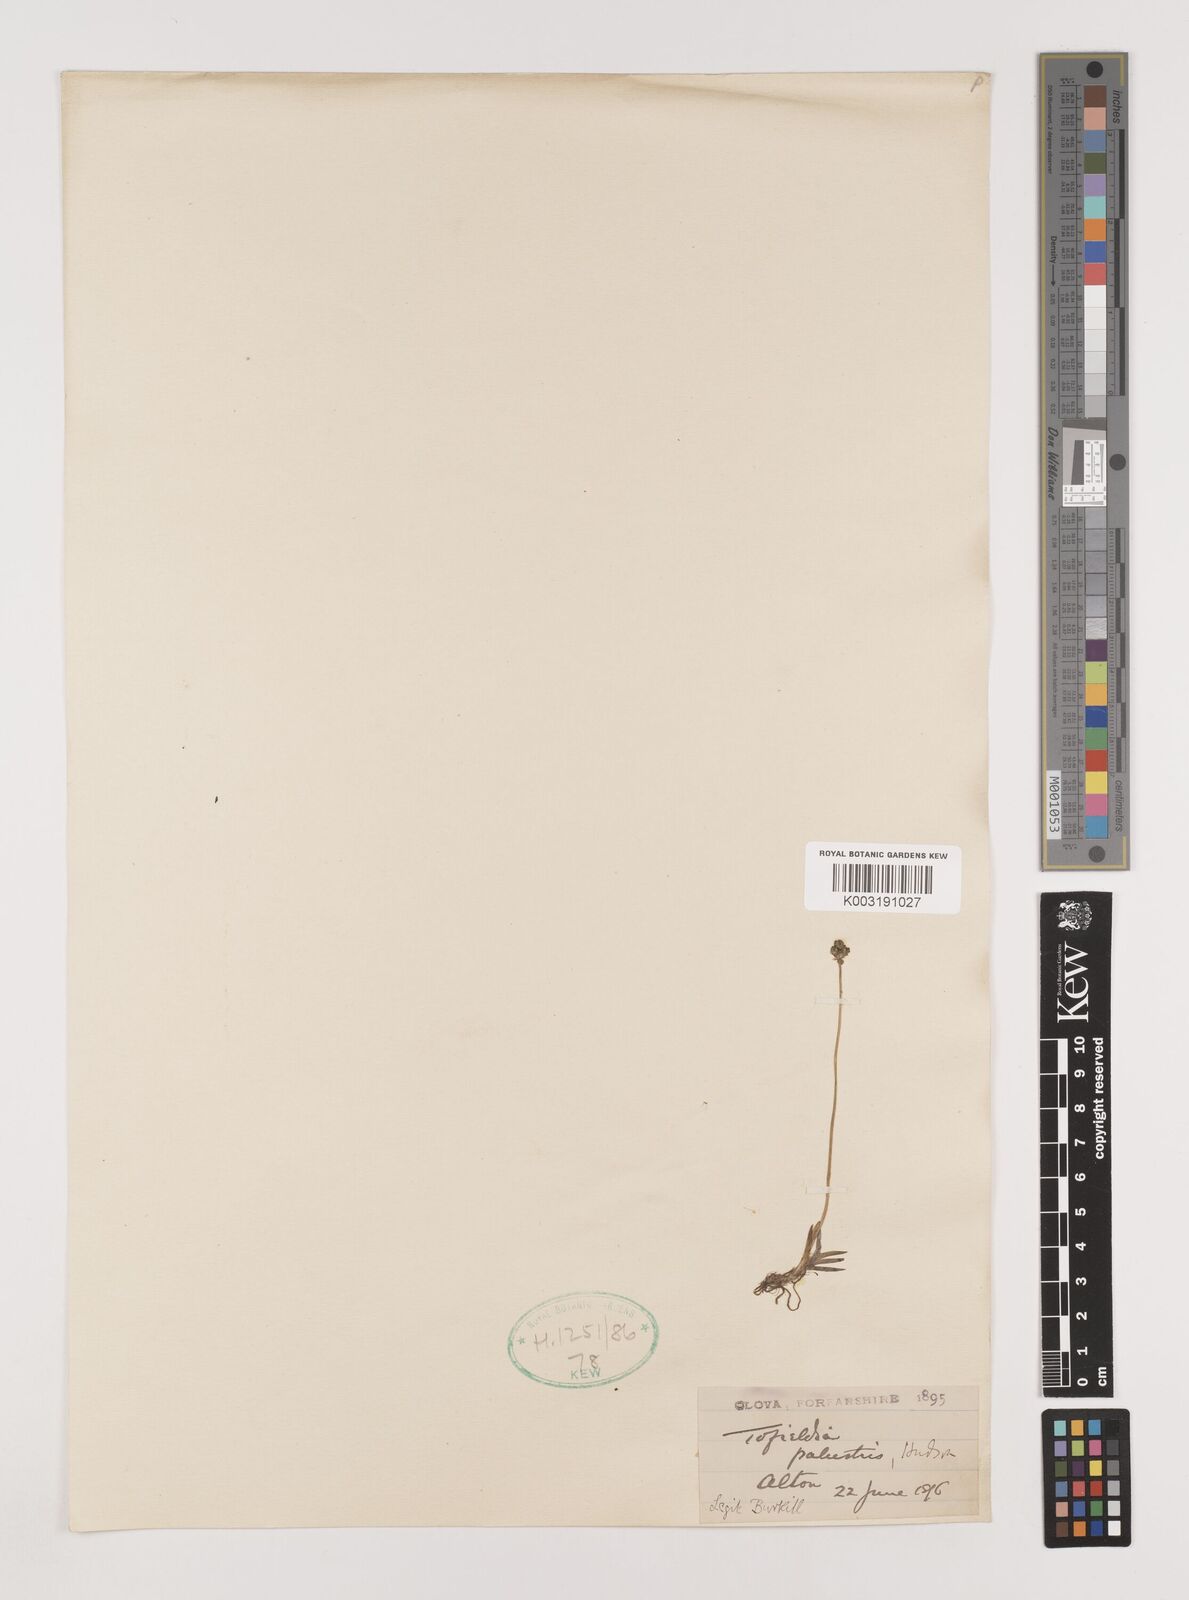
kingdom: Plantae
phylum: Tracheophyta
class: Liliopsida
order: Alismatales
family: Tofieldiaceae
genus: Tofieldia
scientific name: Tofieldia pusilla
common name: Scottish false asphodel
